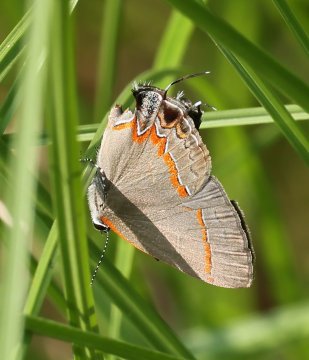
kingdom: Animalia
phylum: Arthropoda
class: Insecta
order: Lepidoptera
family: Lycaenidae
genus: Calycopis
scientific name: Calycopis cecrops
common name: Red-banded Hairstreak
